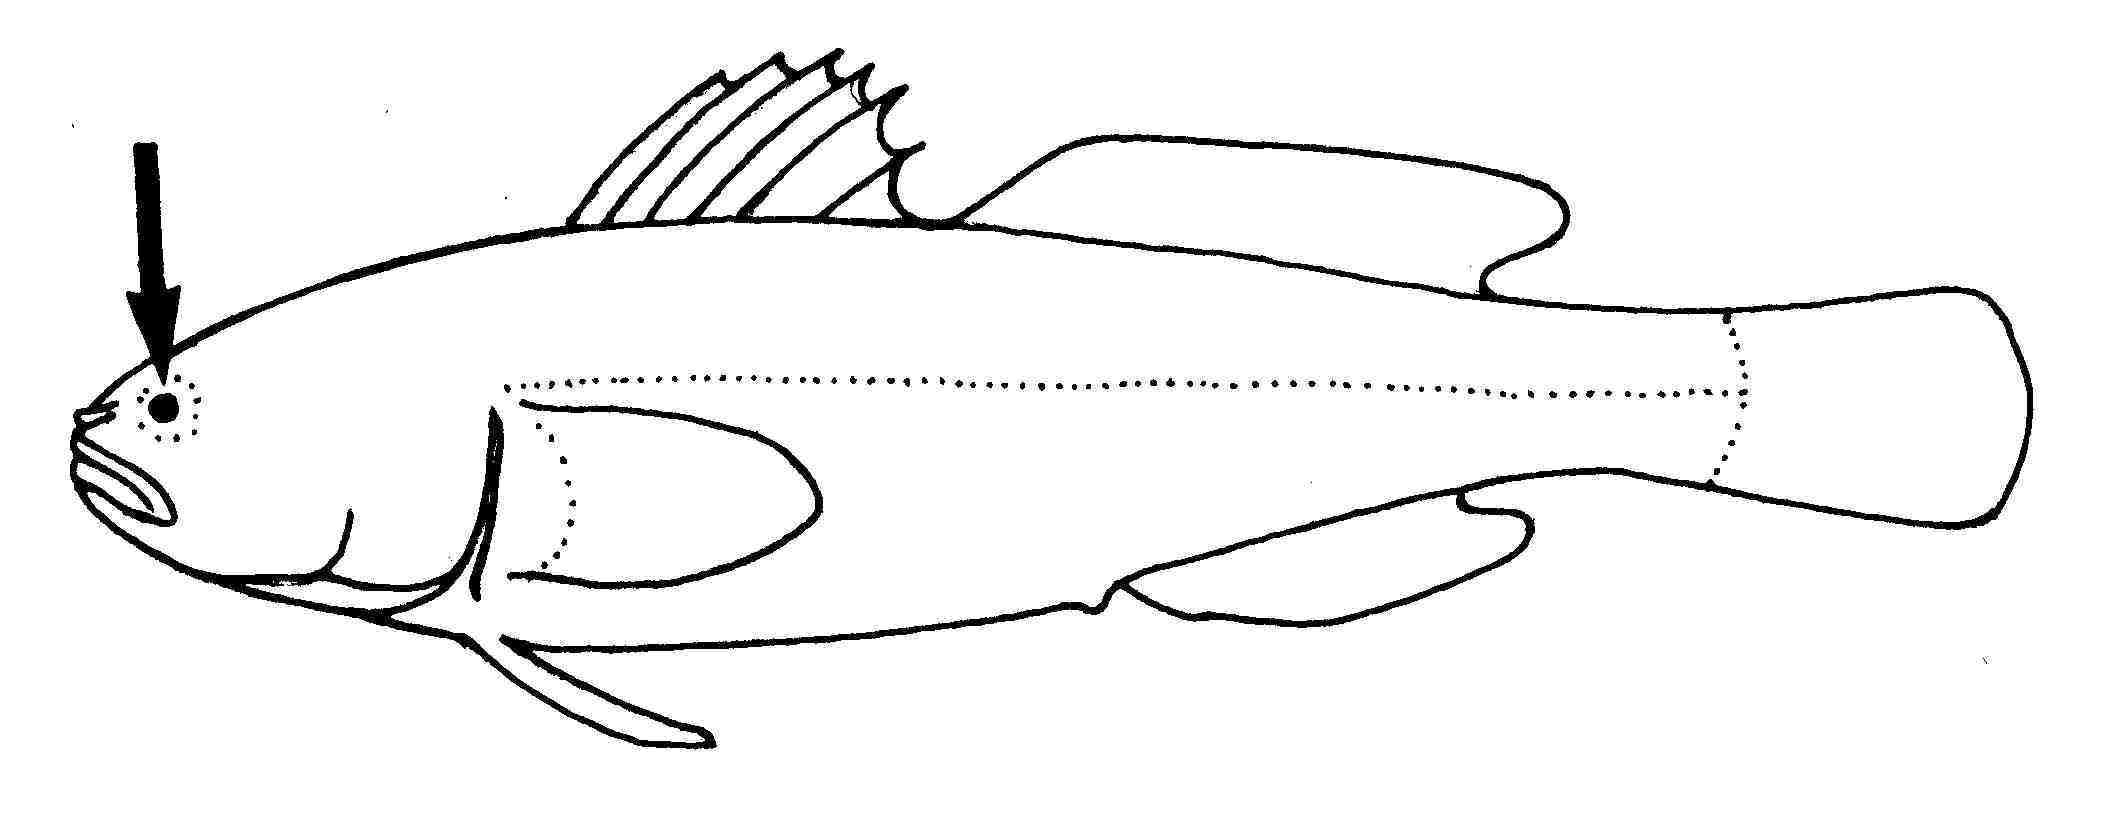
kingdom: Animalia
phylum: Chordata
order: Perciformes
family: Gobiidae
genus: Austrolethops
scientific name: Austrolethops wardi
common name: Small-eyed goby
